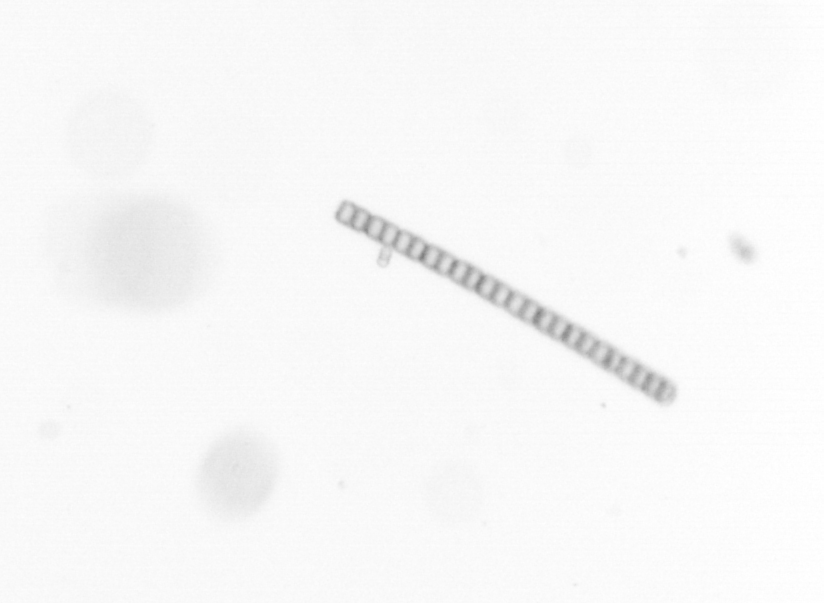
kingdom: Chromista
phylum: Ochrophyta
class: Bacillariophyceae
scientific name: Bacillariophyceae
